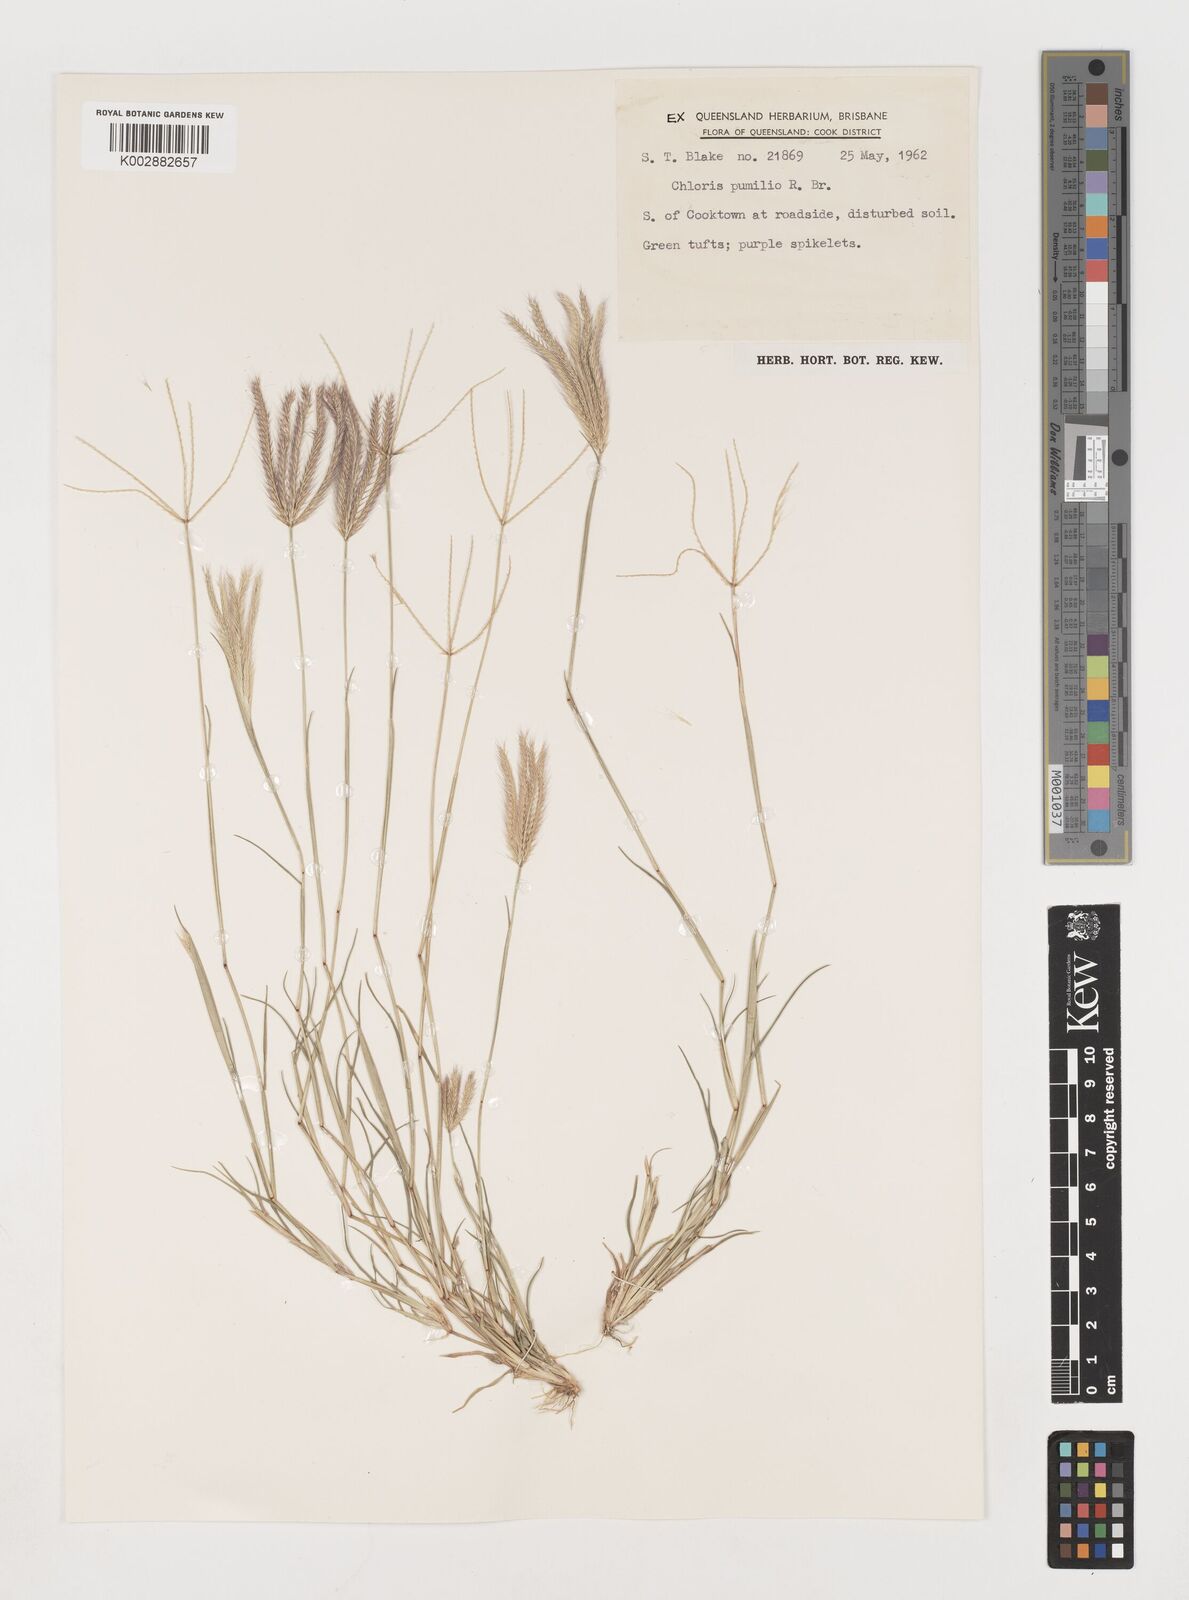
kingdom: Plantae
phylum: Tracheophyta
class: Liliopsida
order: Poales
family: Poaceae
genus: Chloris
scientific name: Chloris lobata
